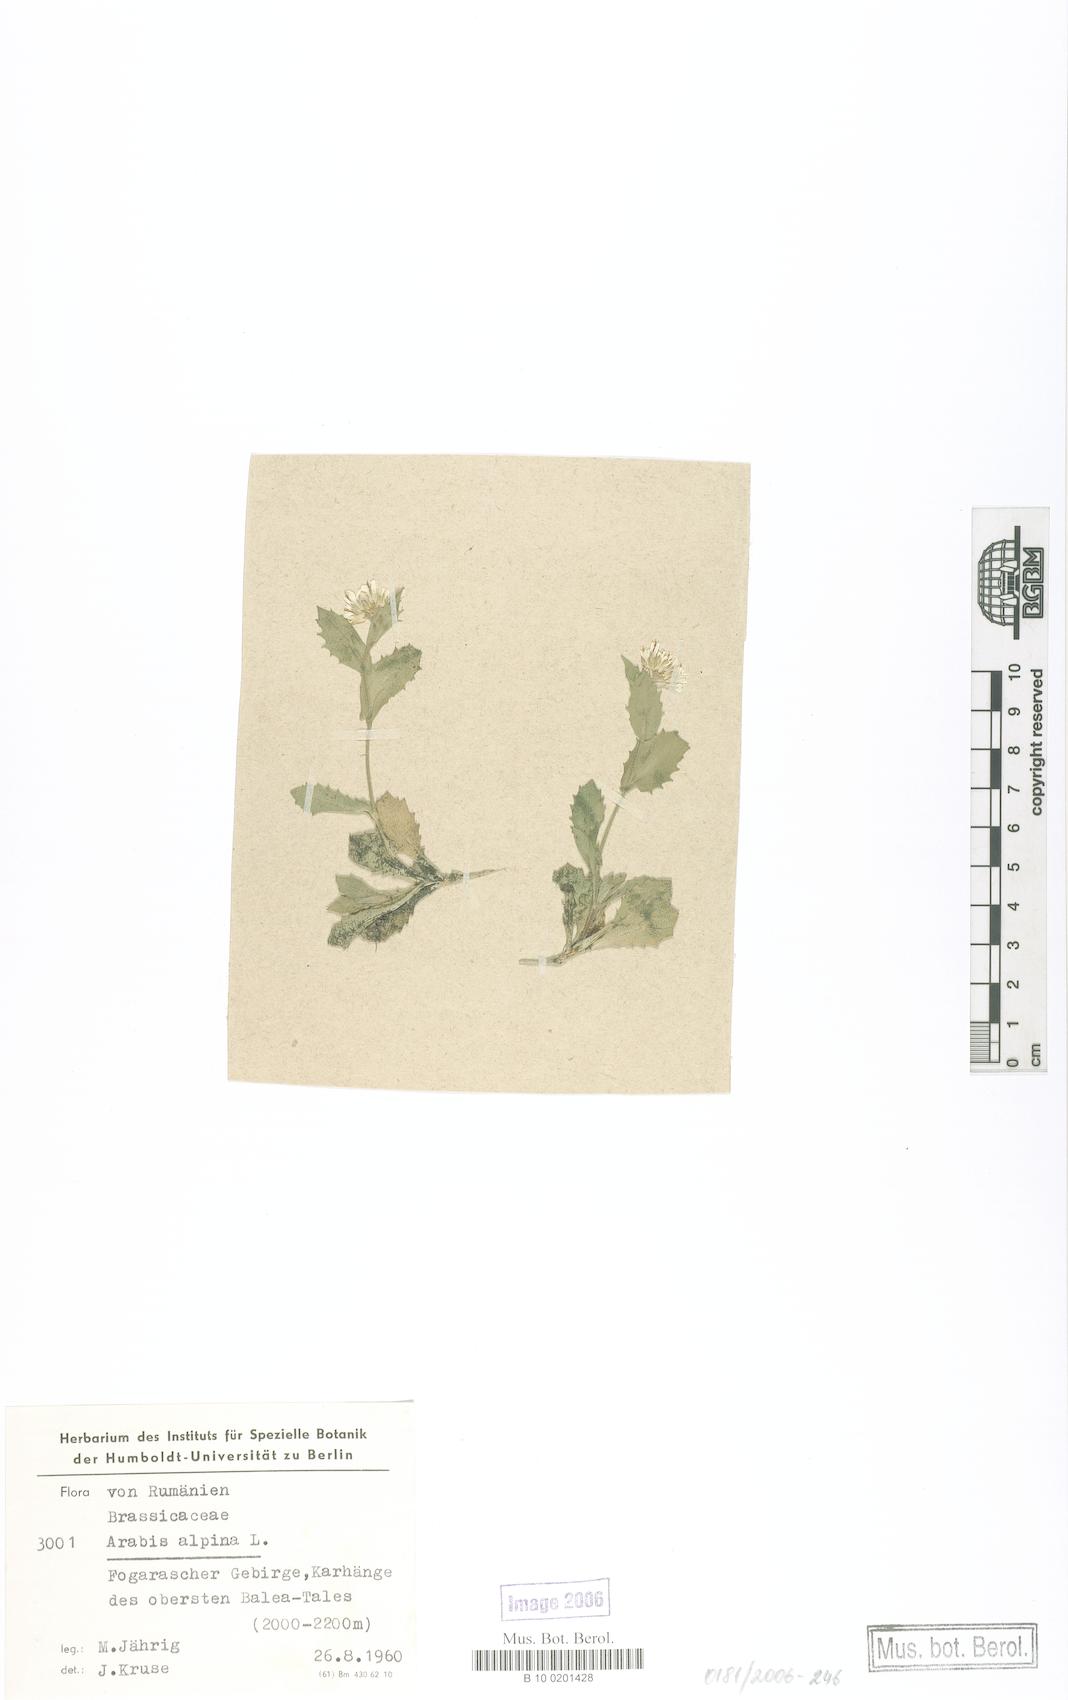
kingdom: Plantae
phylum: Tracheophyta
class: Magnoliopsida
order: Brassicales
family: Brassicaceae
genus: Arabis
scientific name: Arabis alpina
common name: Alpine rock-cress
